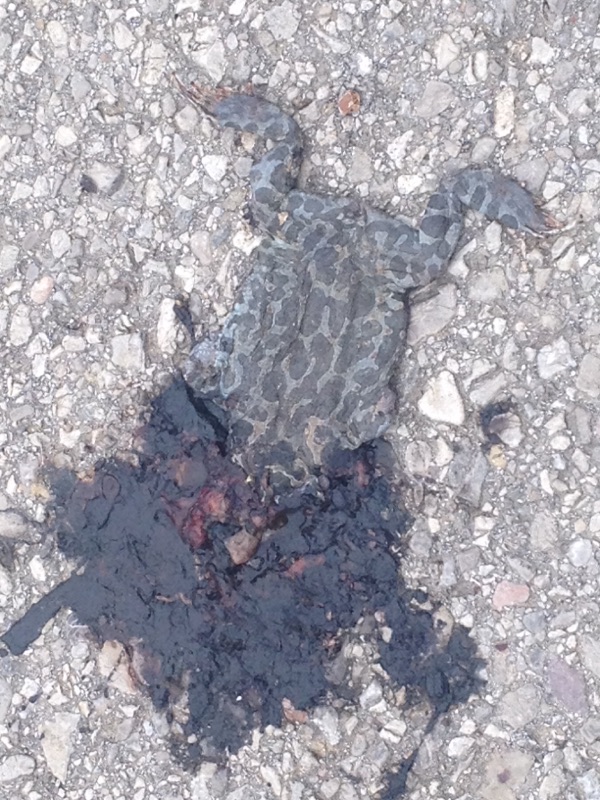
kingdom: Animalia
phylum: Chordata
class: Amphibia
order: Anura
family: Bufonidae
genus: Bufotes
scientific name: Bufotes viridis
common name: European green toad
